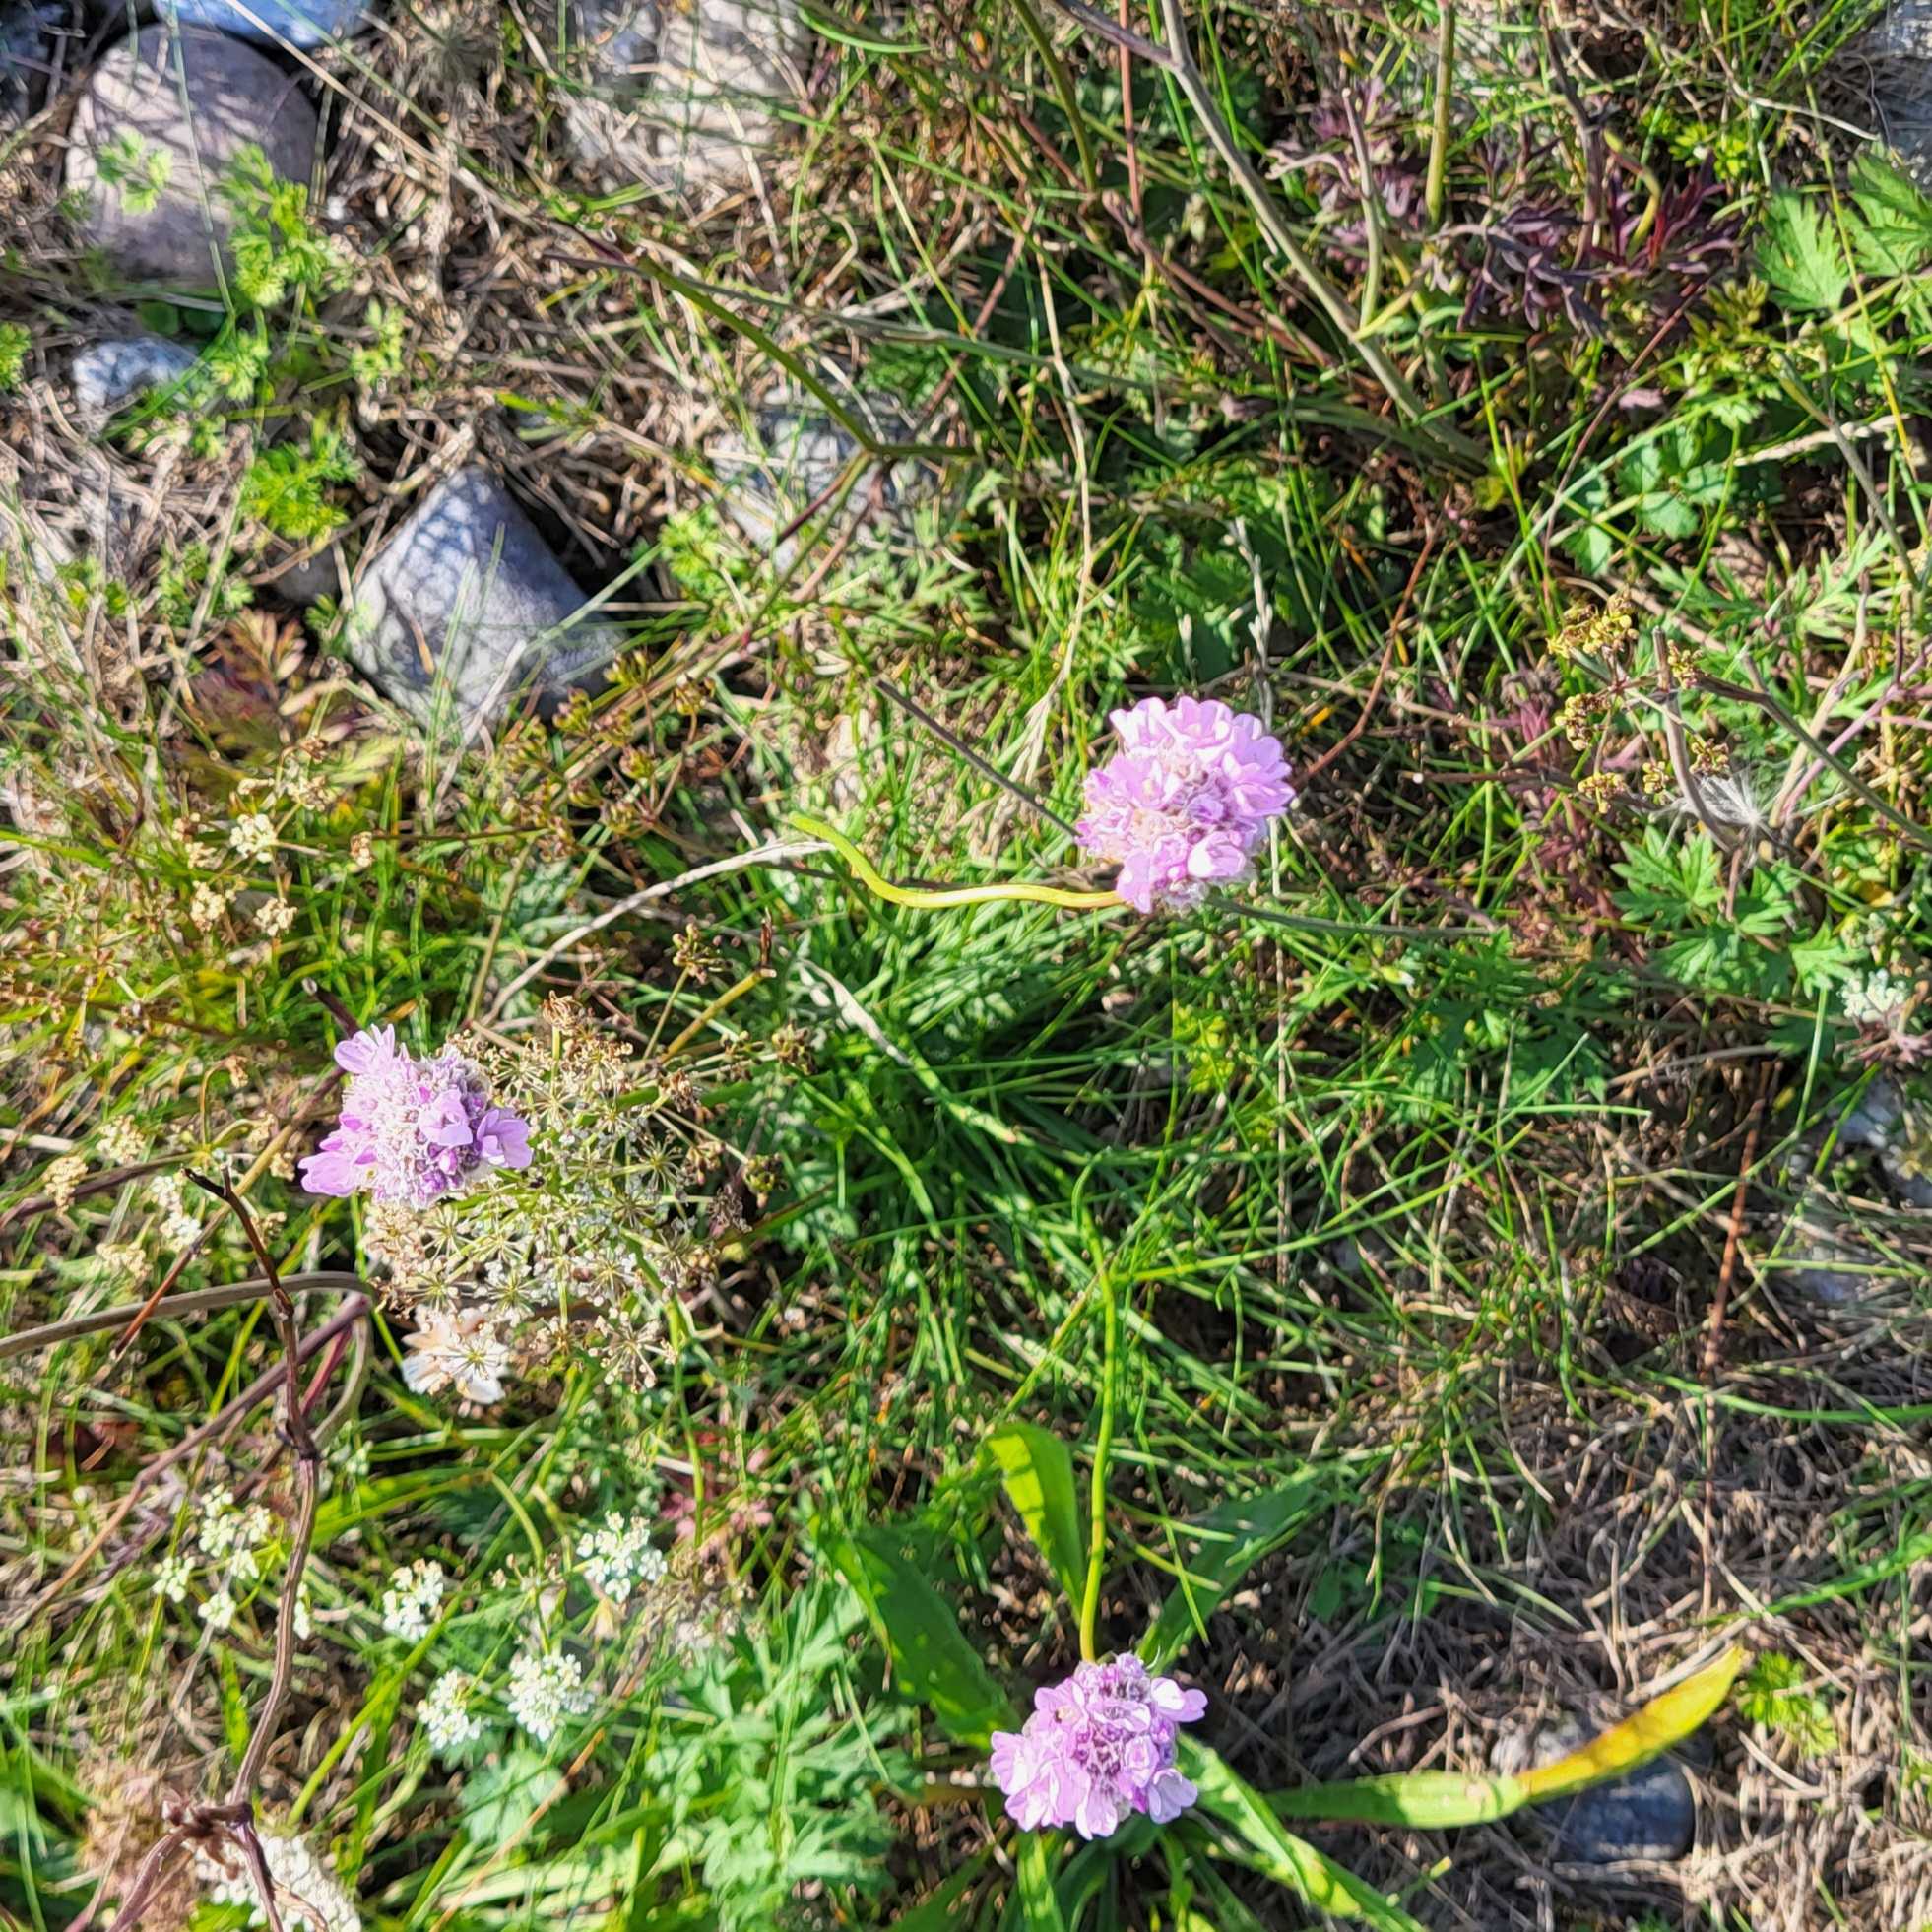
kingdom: Plantae
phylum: Tracheophyta
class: Magnoliopsida
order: Caryophyllales
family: Plumbaginaceae
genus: Armeria
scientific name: Armeria maritima
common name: Engelskgræs
